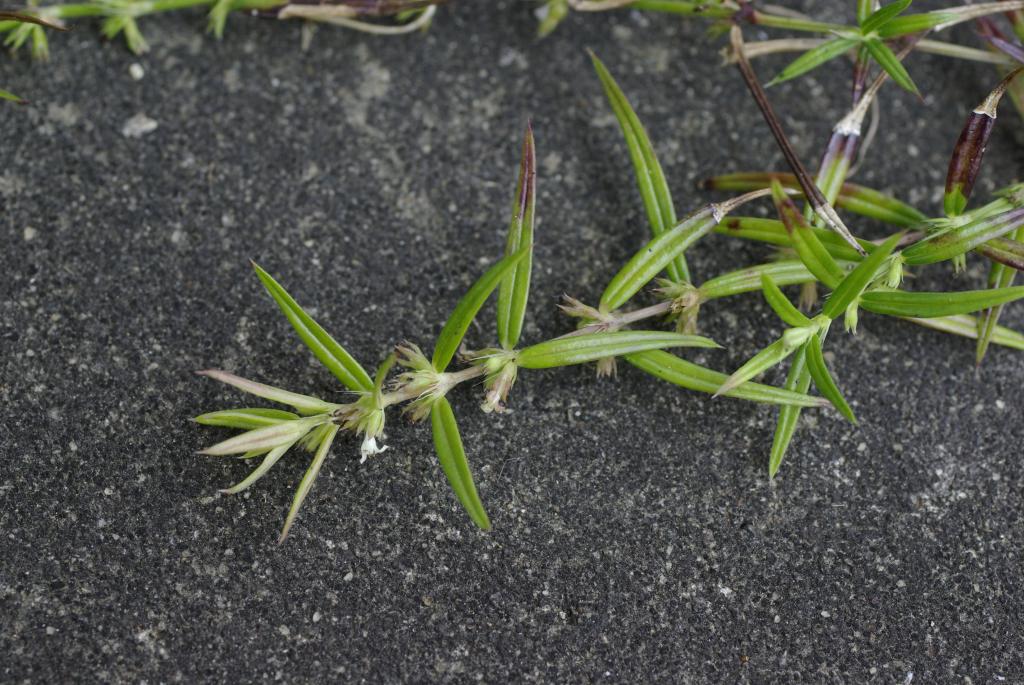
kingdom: Plantae
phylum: Tracheophyta
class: Magnoliopsida
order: Gentianales
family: Rubiaceae
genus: Scleromitrion
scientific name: Scleromitrion tenelliflorum
